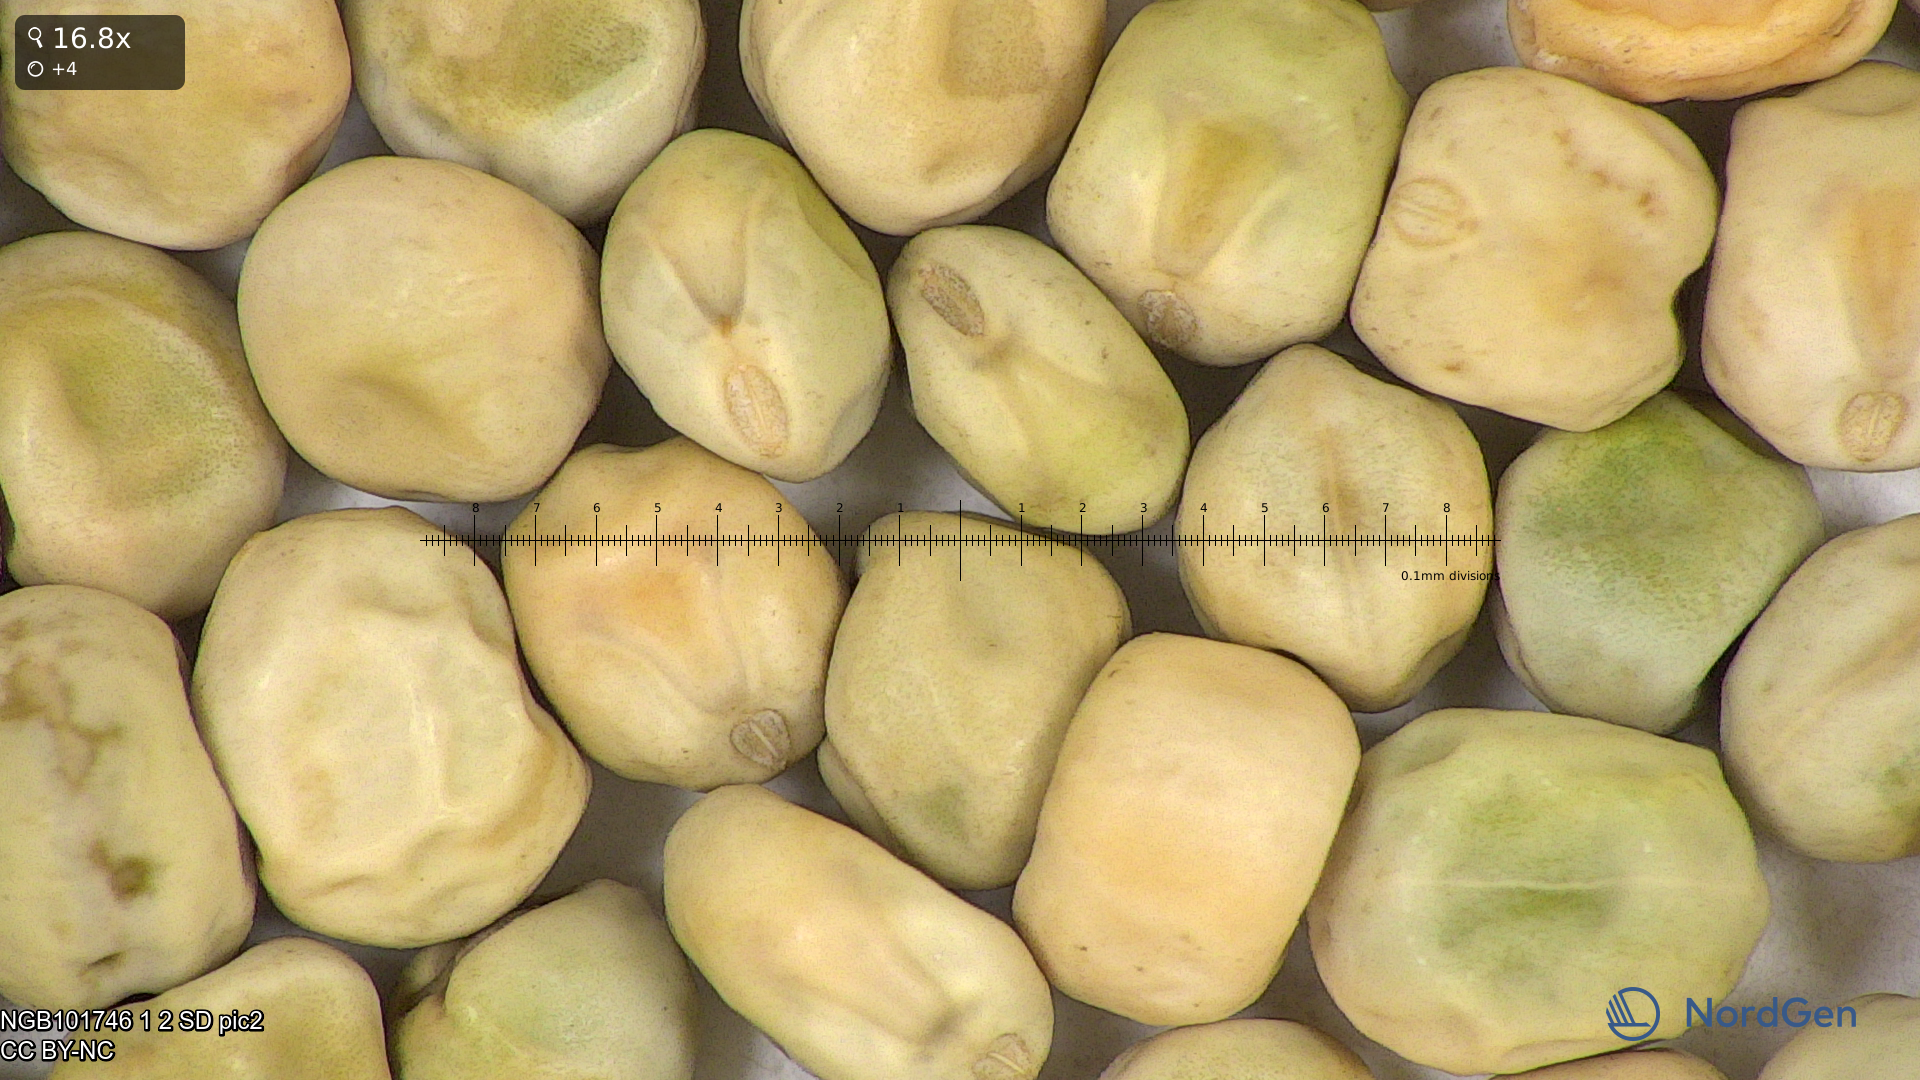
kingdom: Plantae
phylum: Tracheophyta
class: Magnoliopsida
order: Fabales
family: Fabaceae
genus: Lathyrus
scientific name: Lathyrus oleraceus
